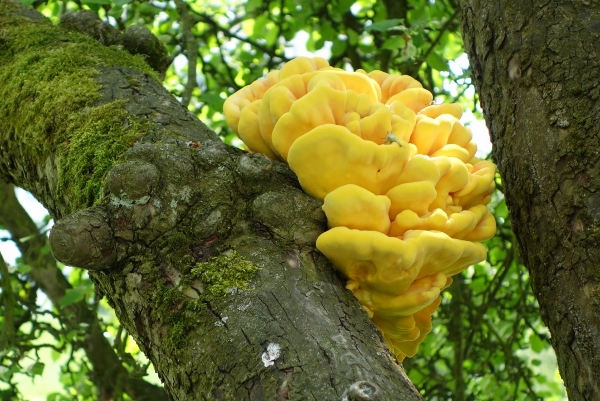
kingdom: Fungi
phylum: Basidiomycota
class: Agaricomycetes
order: Polyporales
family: Laetiporaceae
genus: Laetiporus
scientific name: Laetiporus sulphureus
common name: svovlporesvamp
